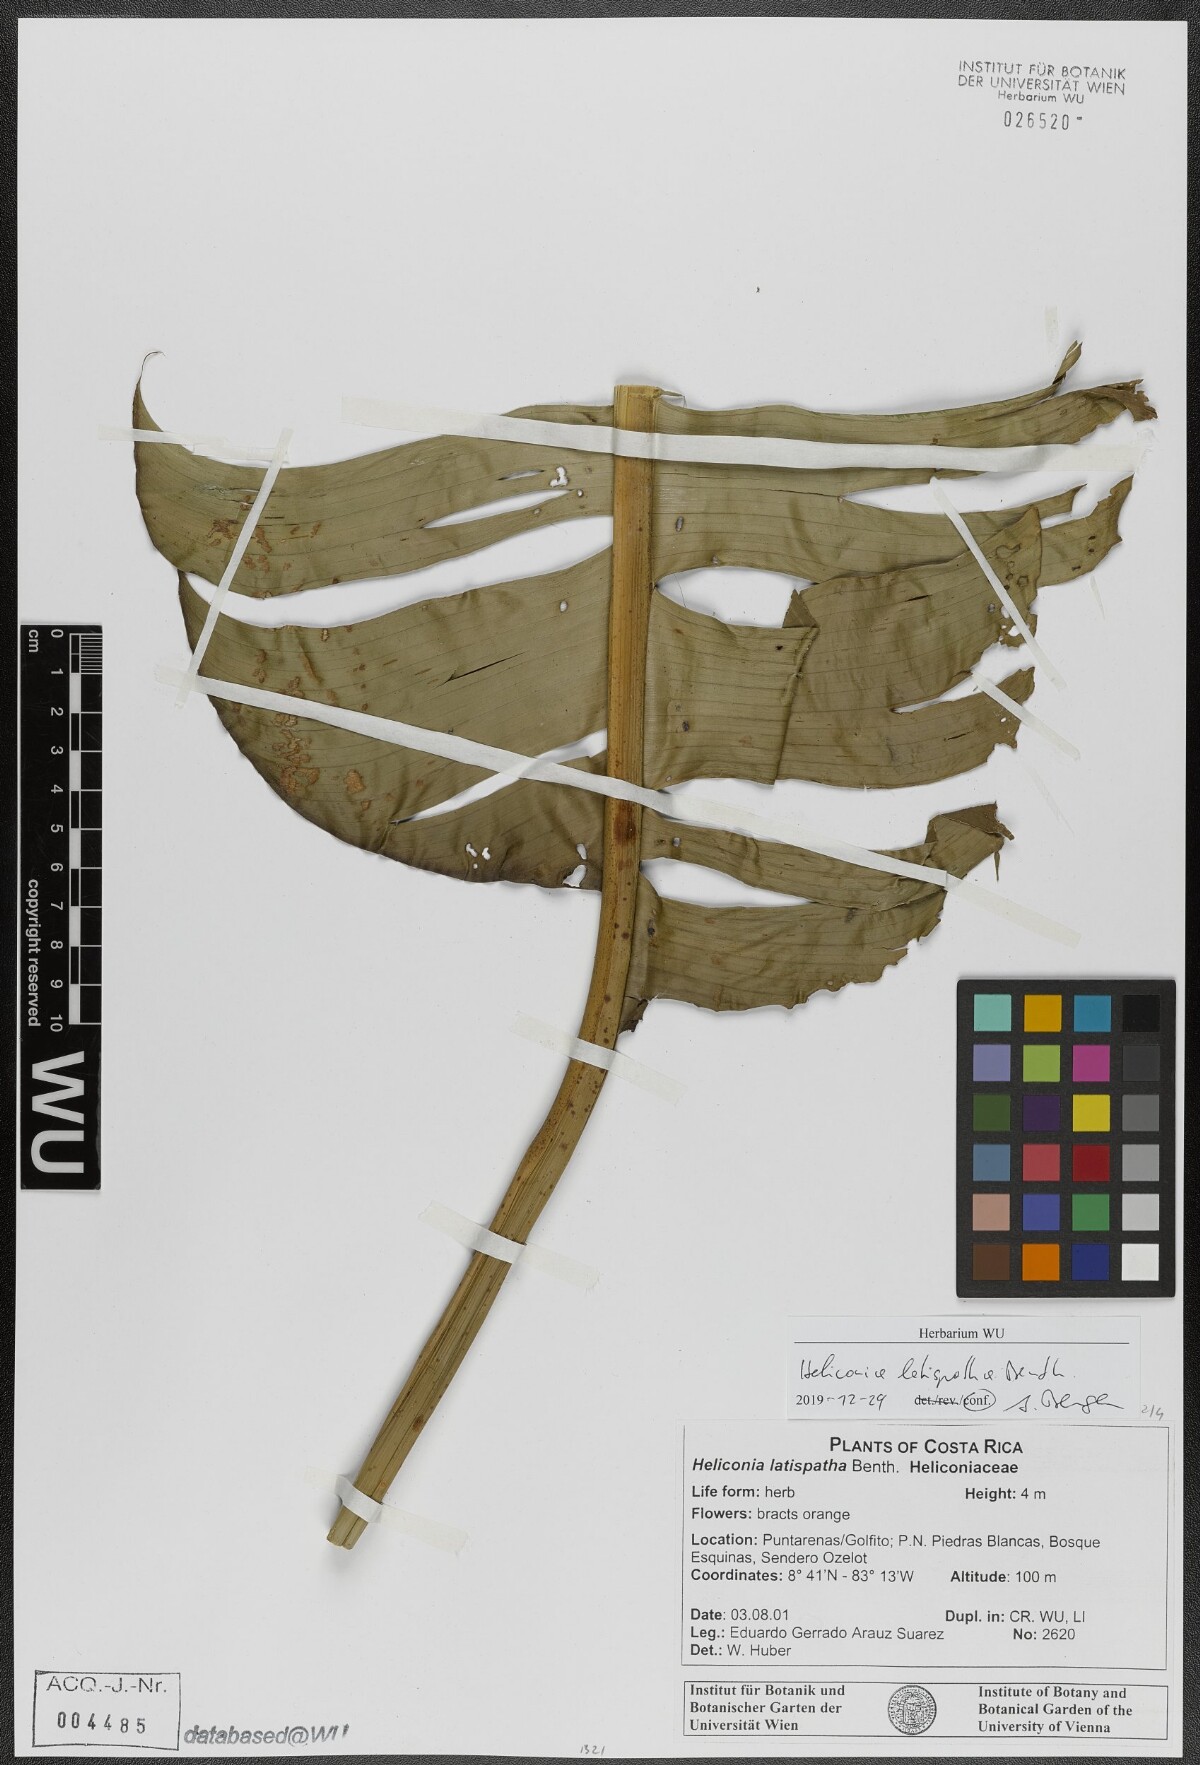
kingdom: Plantae
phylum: Tracheophyta
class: Liliopsida
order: Zingiberales
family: Heliconiaceae
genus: Heliconia
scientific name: Heliconia latispatha
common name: Expanded lobsterclaw
